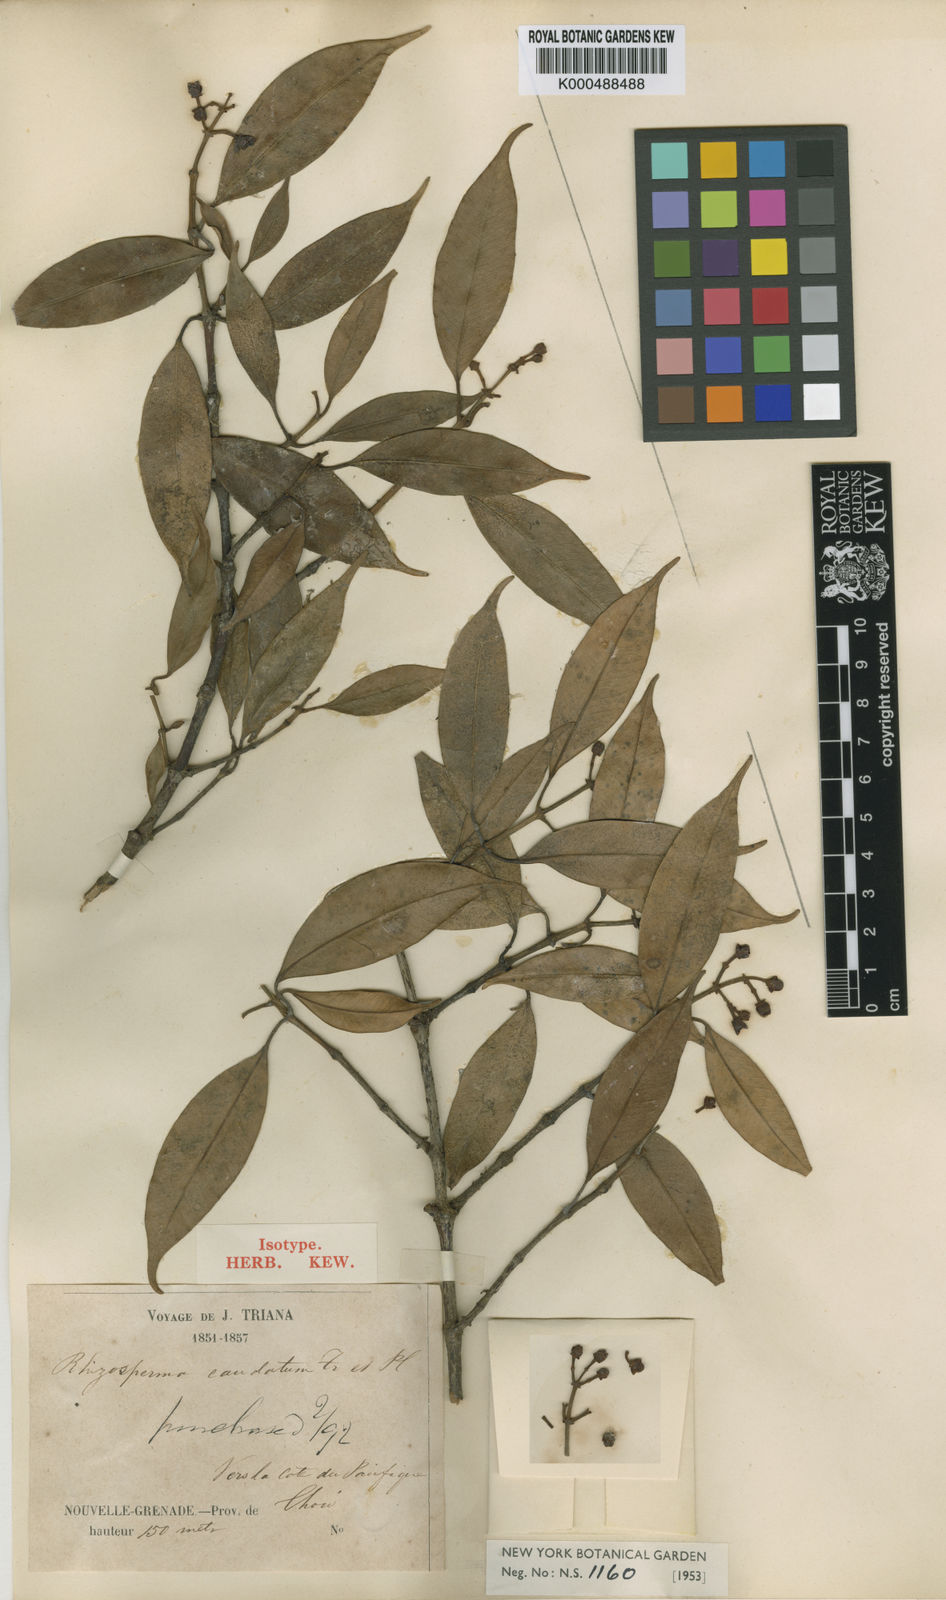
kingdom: Plantae
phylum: Tracheophyta
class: Magnoliopsida
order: Malpighiales
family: Clusiaceae
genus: Clusia
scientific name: Clusia caudata
